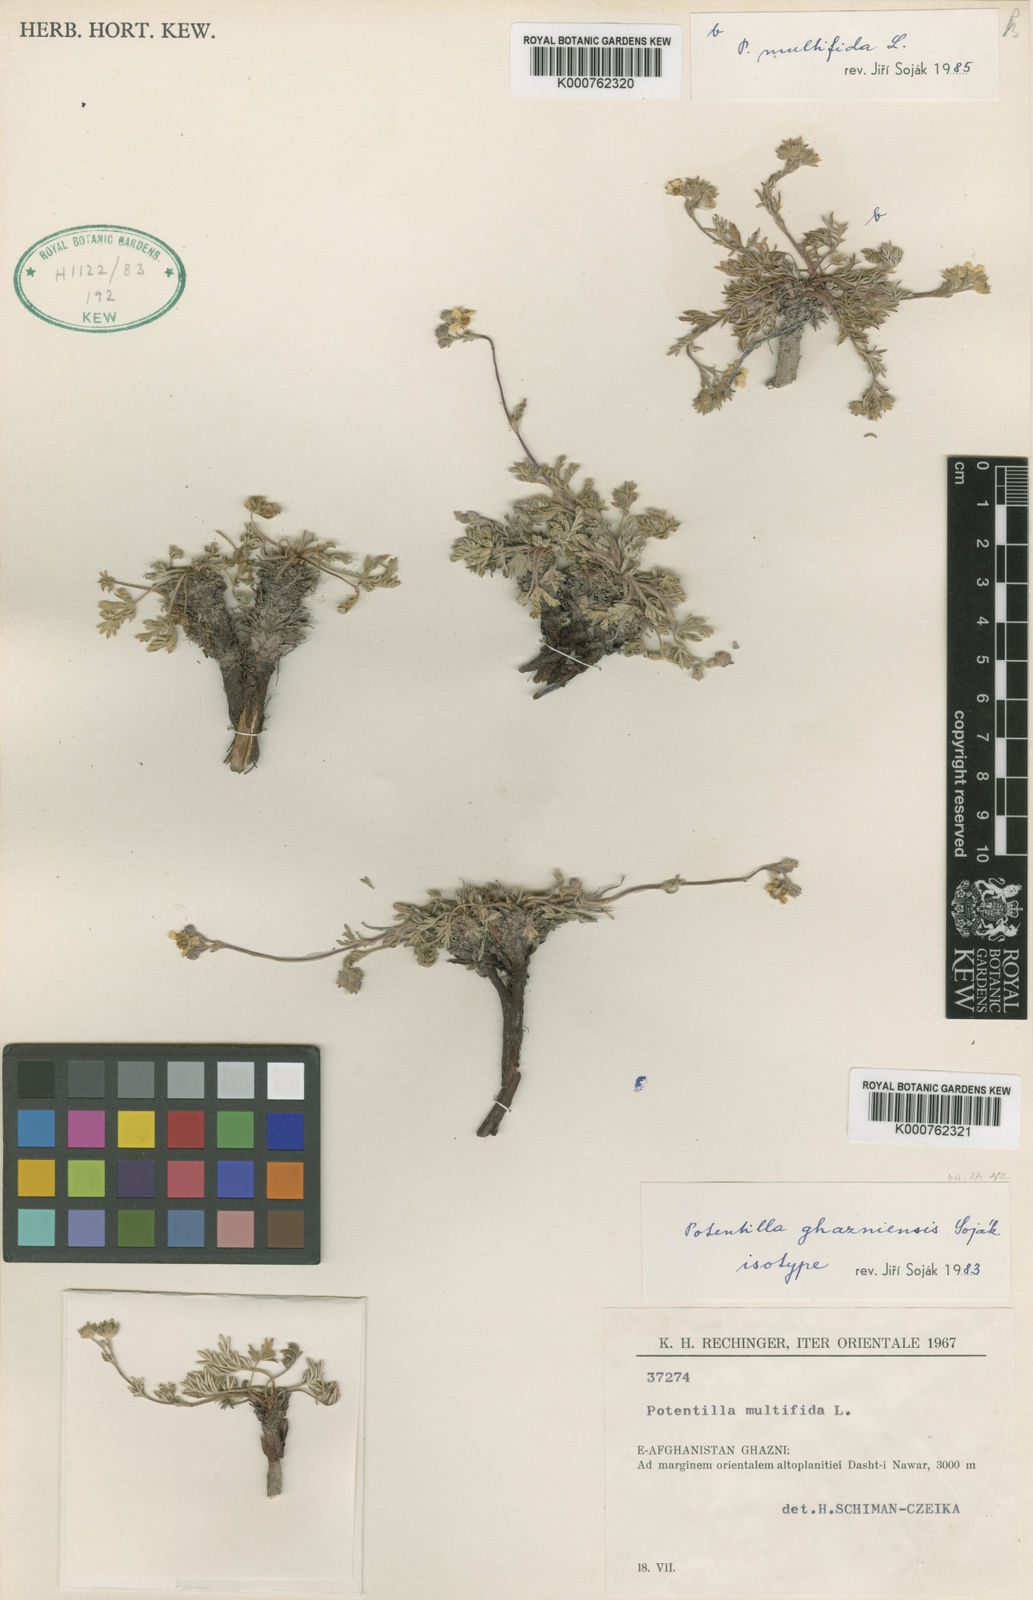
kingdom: Plantae
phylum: Tracheophyta
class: Magnoliopsida
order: Rosales
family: Rosaceae
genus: Potentilla
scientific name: Potentilla multifida
